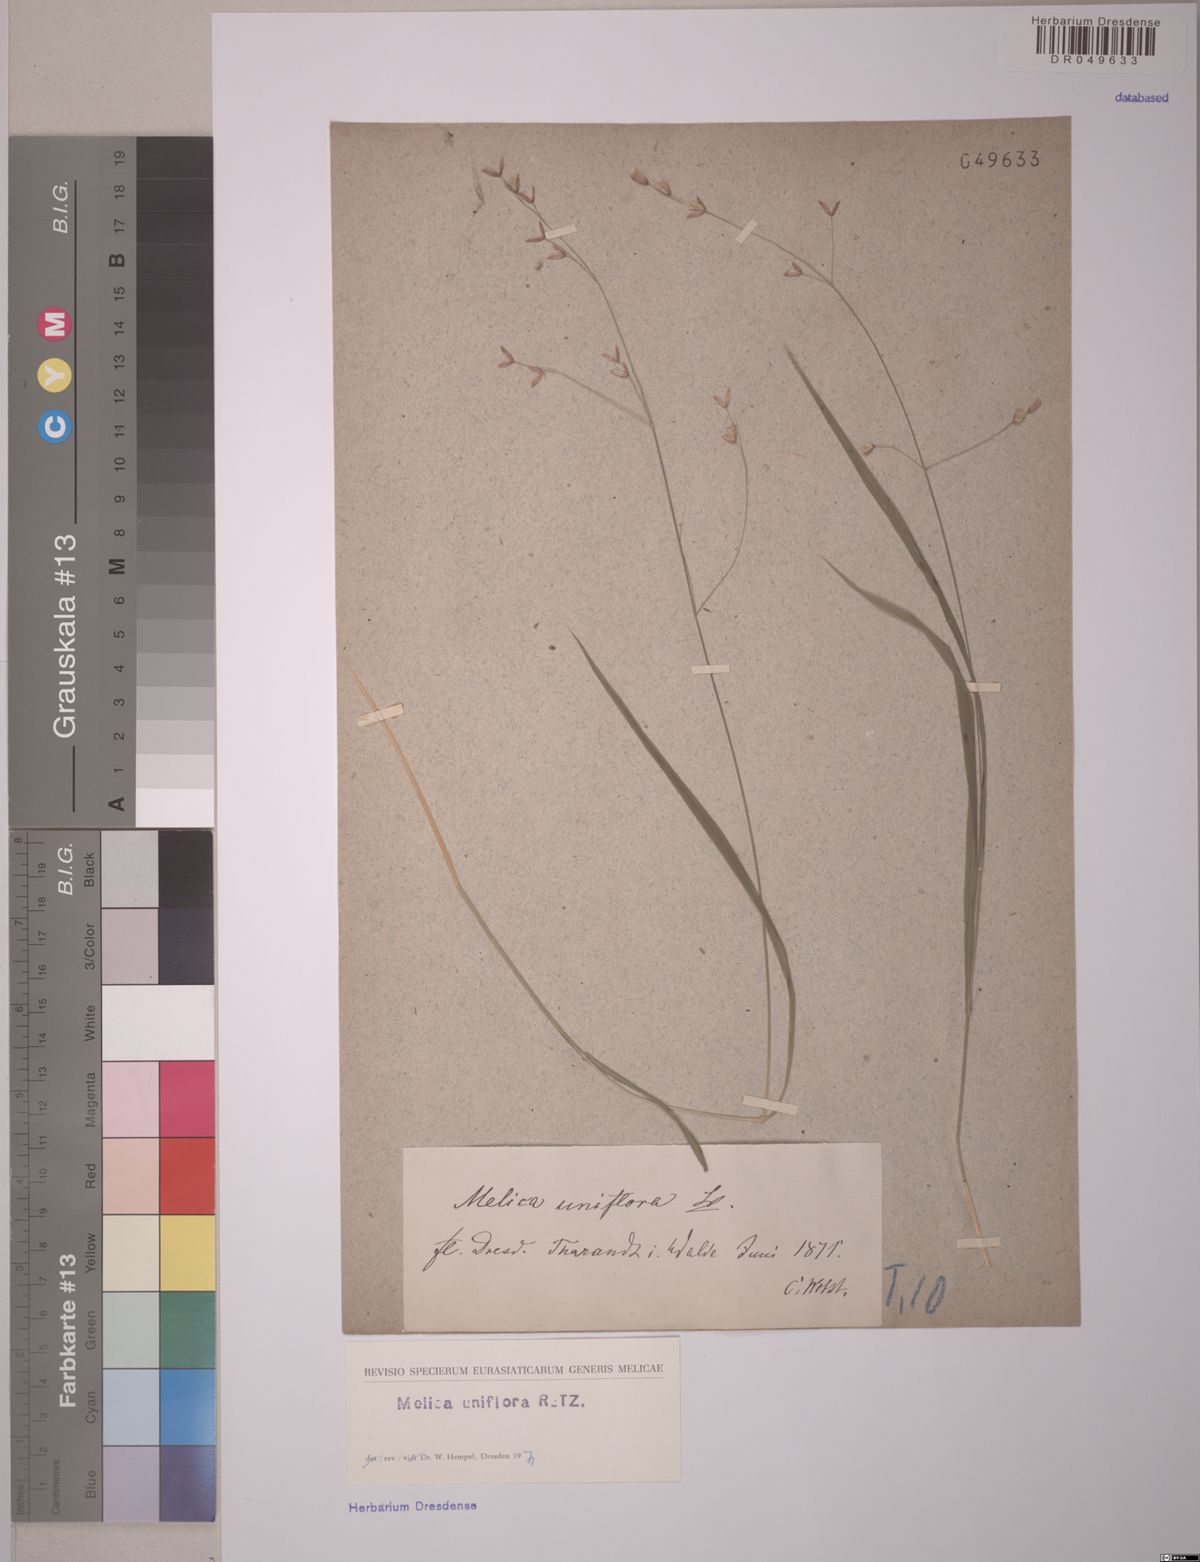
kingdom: Plantae
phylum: Tracheophyta
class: Liliopsida
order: Poales
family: Poaceae
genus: Melica
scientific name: Melica uniflora
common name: Wood melick
